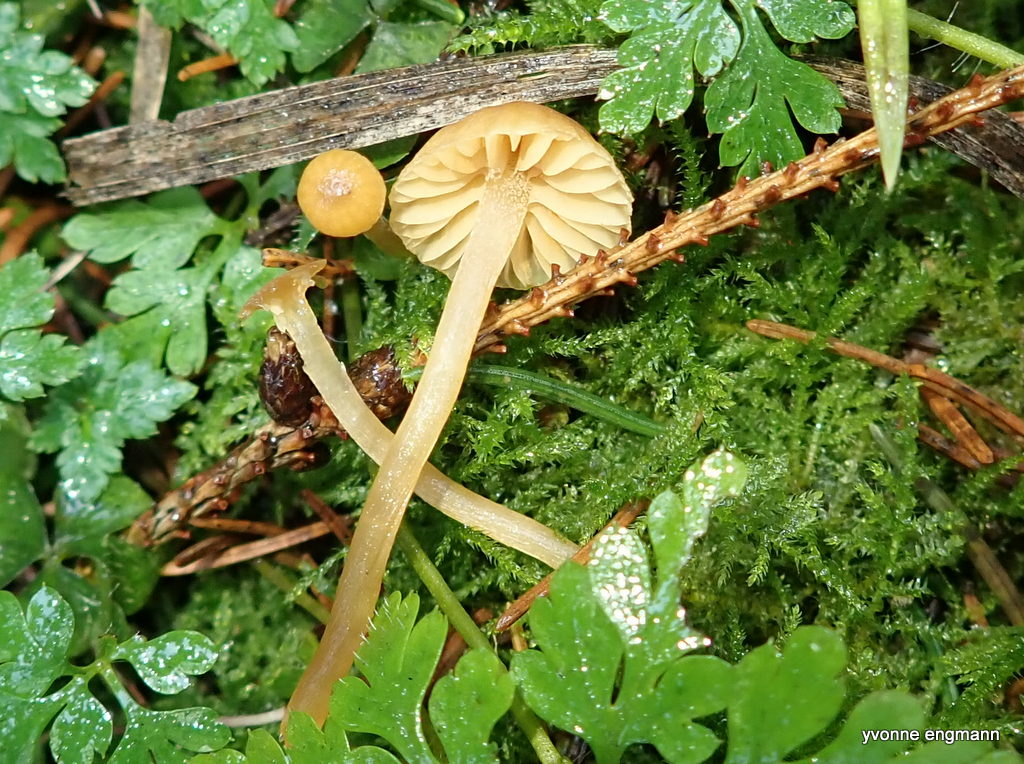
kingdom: Fungi
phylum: Basidiomycota
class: Agaricomycetes
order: Agaricales
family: Hymenogastraceae
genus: Galerina
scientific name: Galerina
